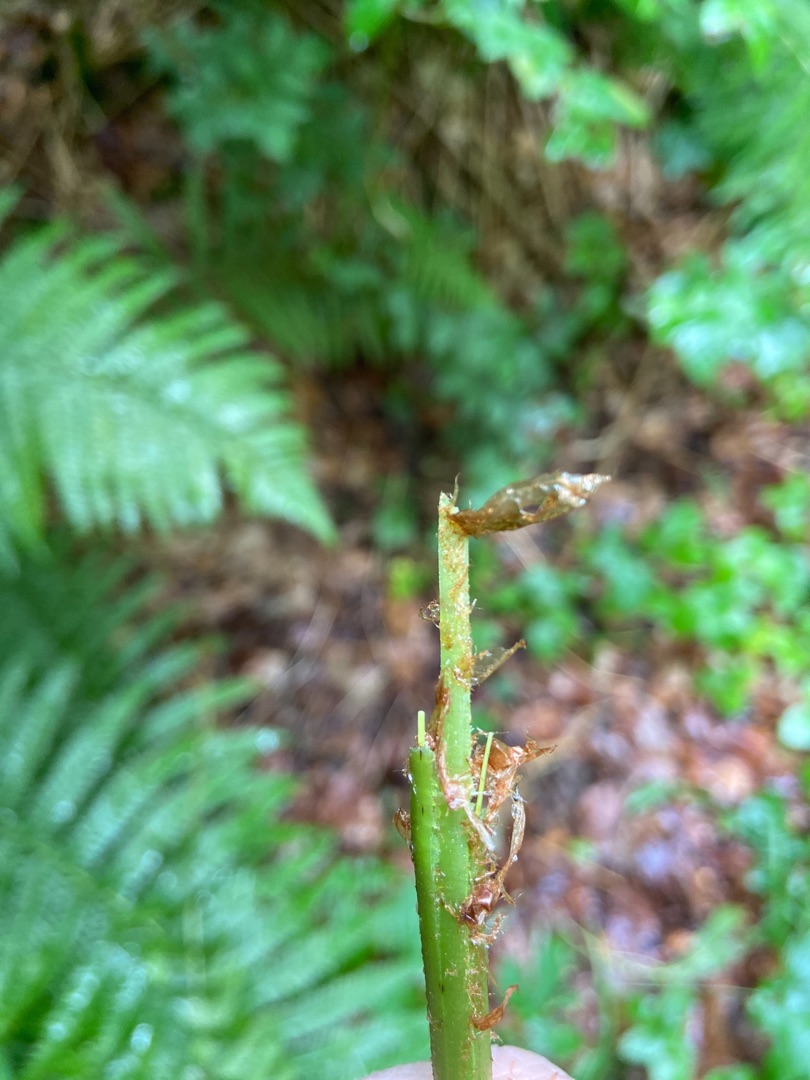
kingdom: Plantae
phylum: Tracheophyta
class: Polypodiopsida
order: Polypodiales
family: Dryopteridaceae
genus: Dryopteris
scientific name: Dryopteris filix-mas
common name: Almindelig mangeløv
